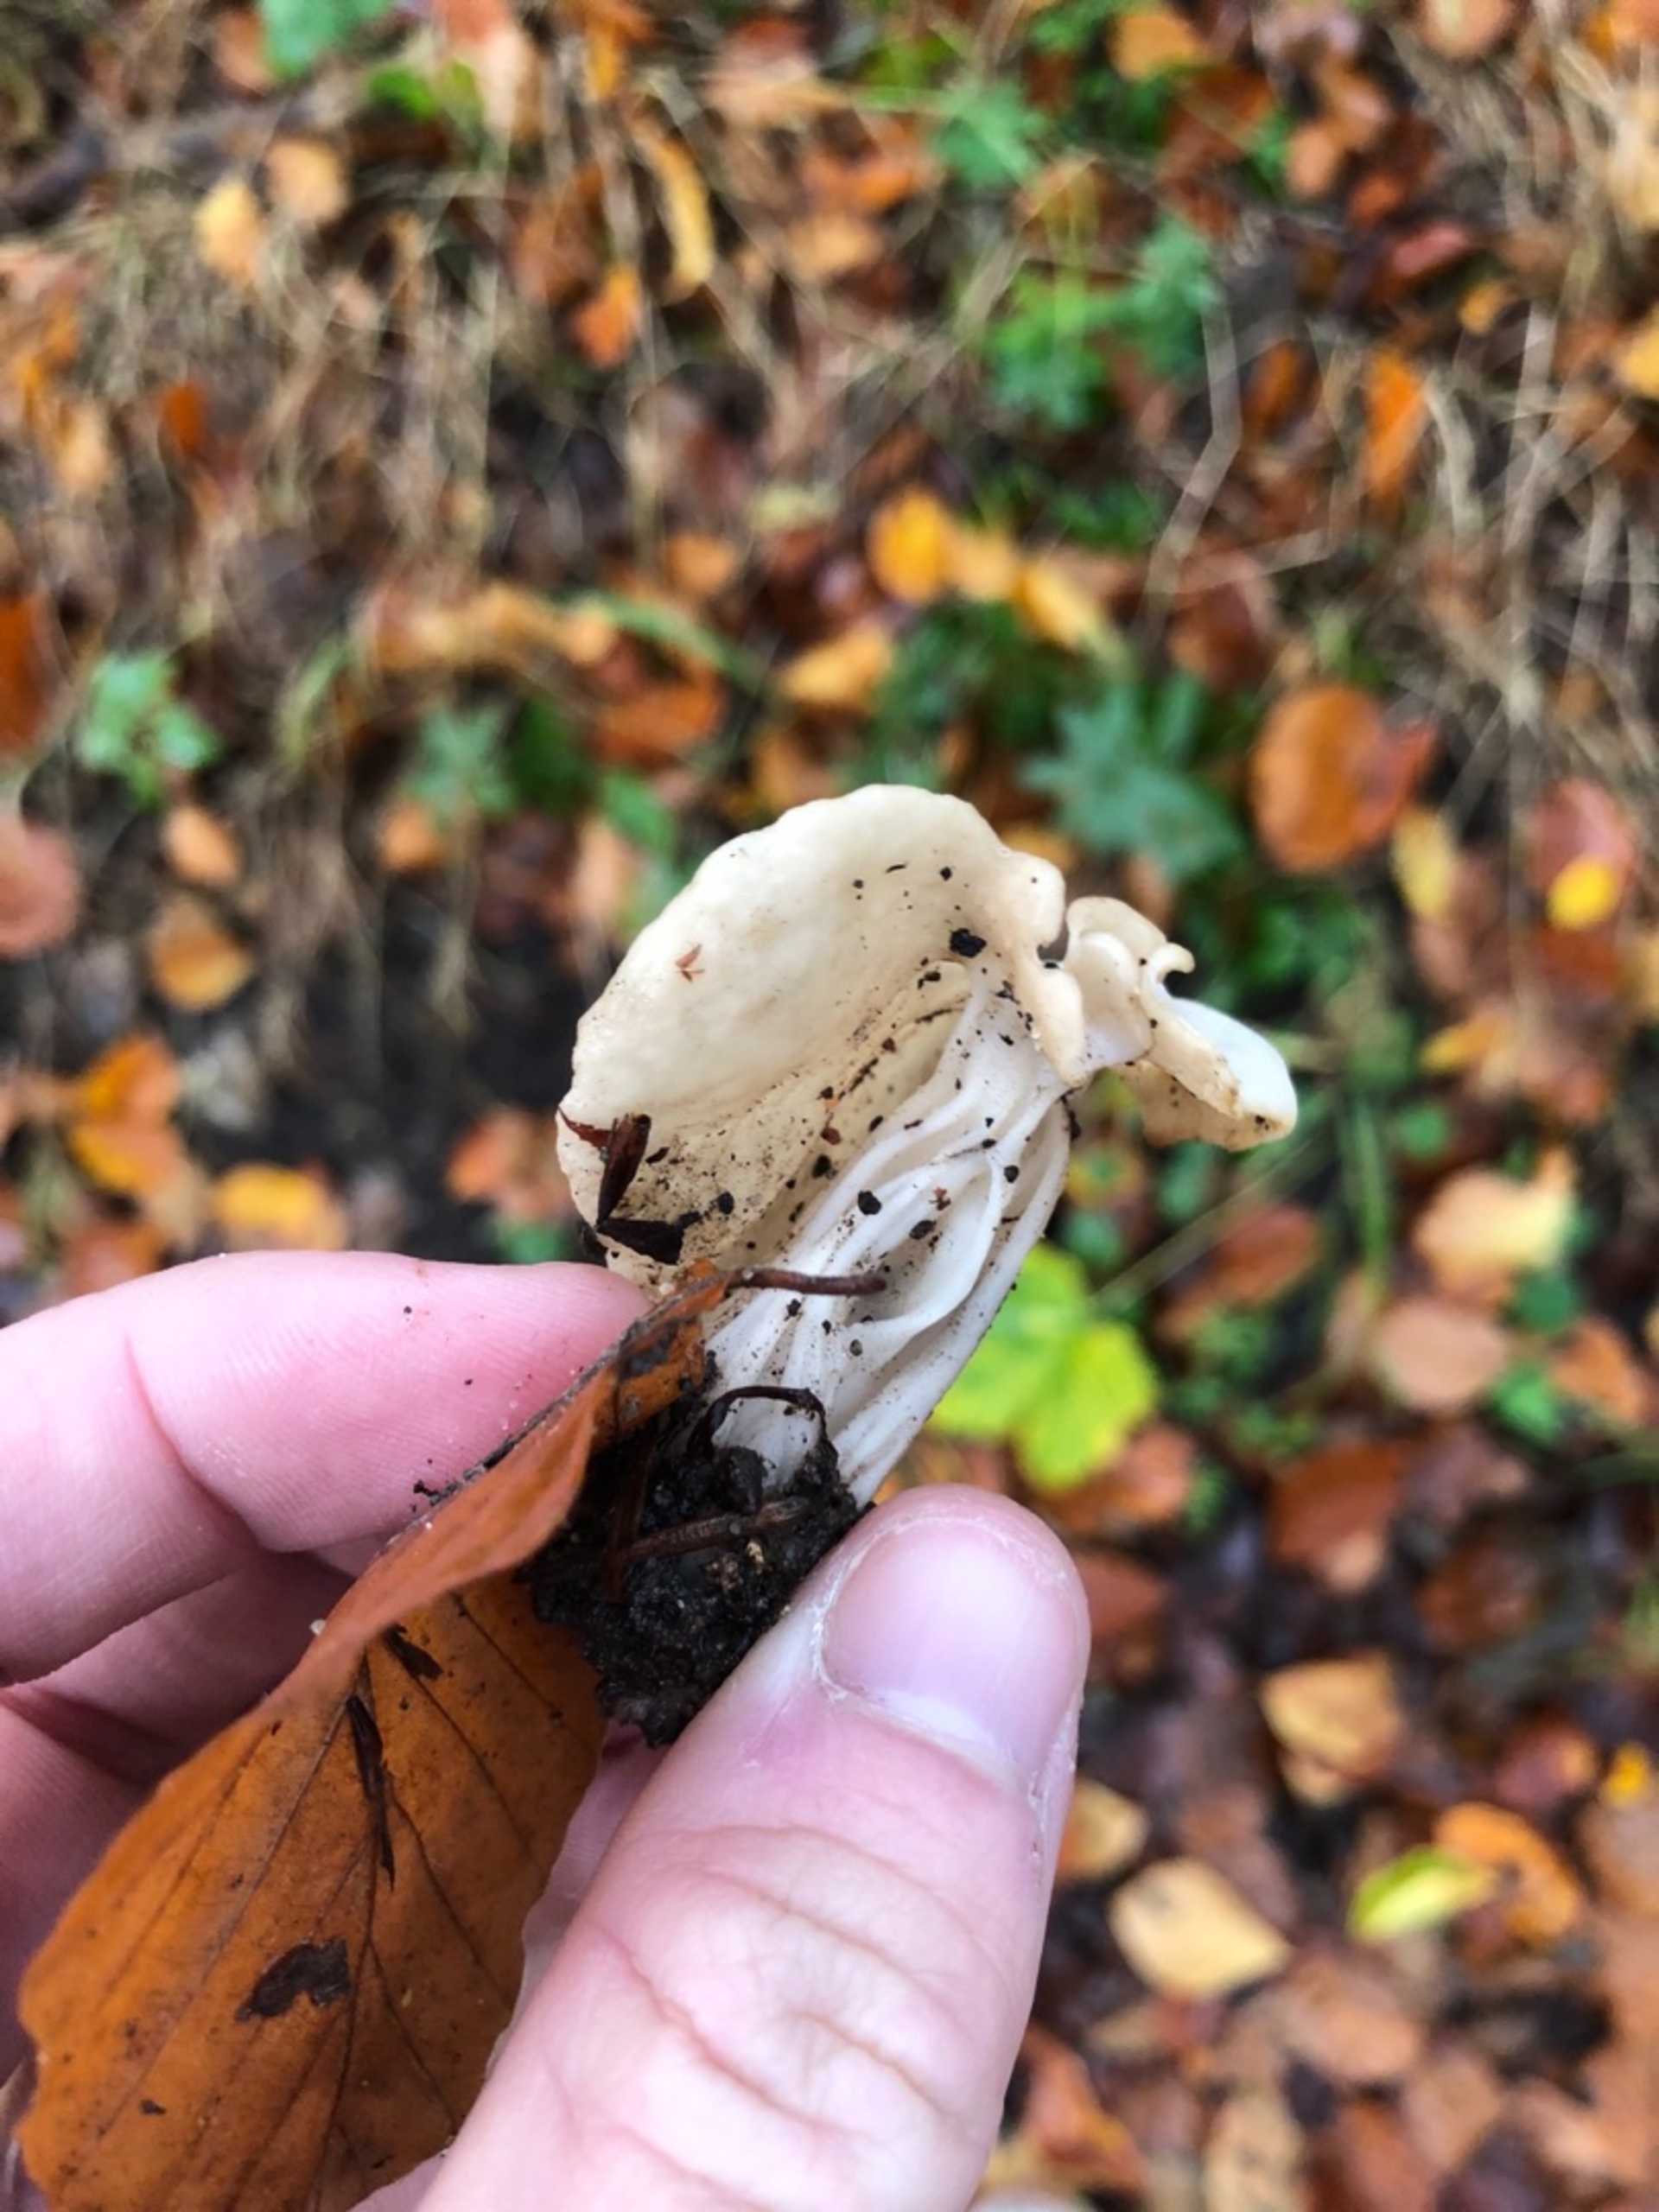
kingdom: Fungi
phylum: Ascomycota
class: Pezizomycetes
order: Pezizales
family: Helvellaceae
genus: Helvella
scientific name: Helvella crispa
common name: Kruset foldhat
